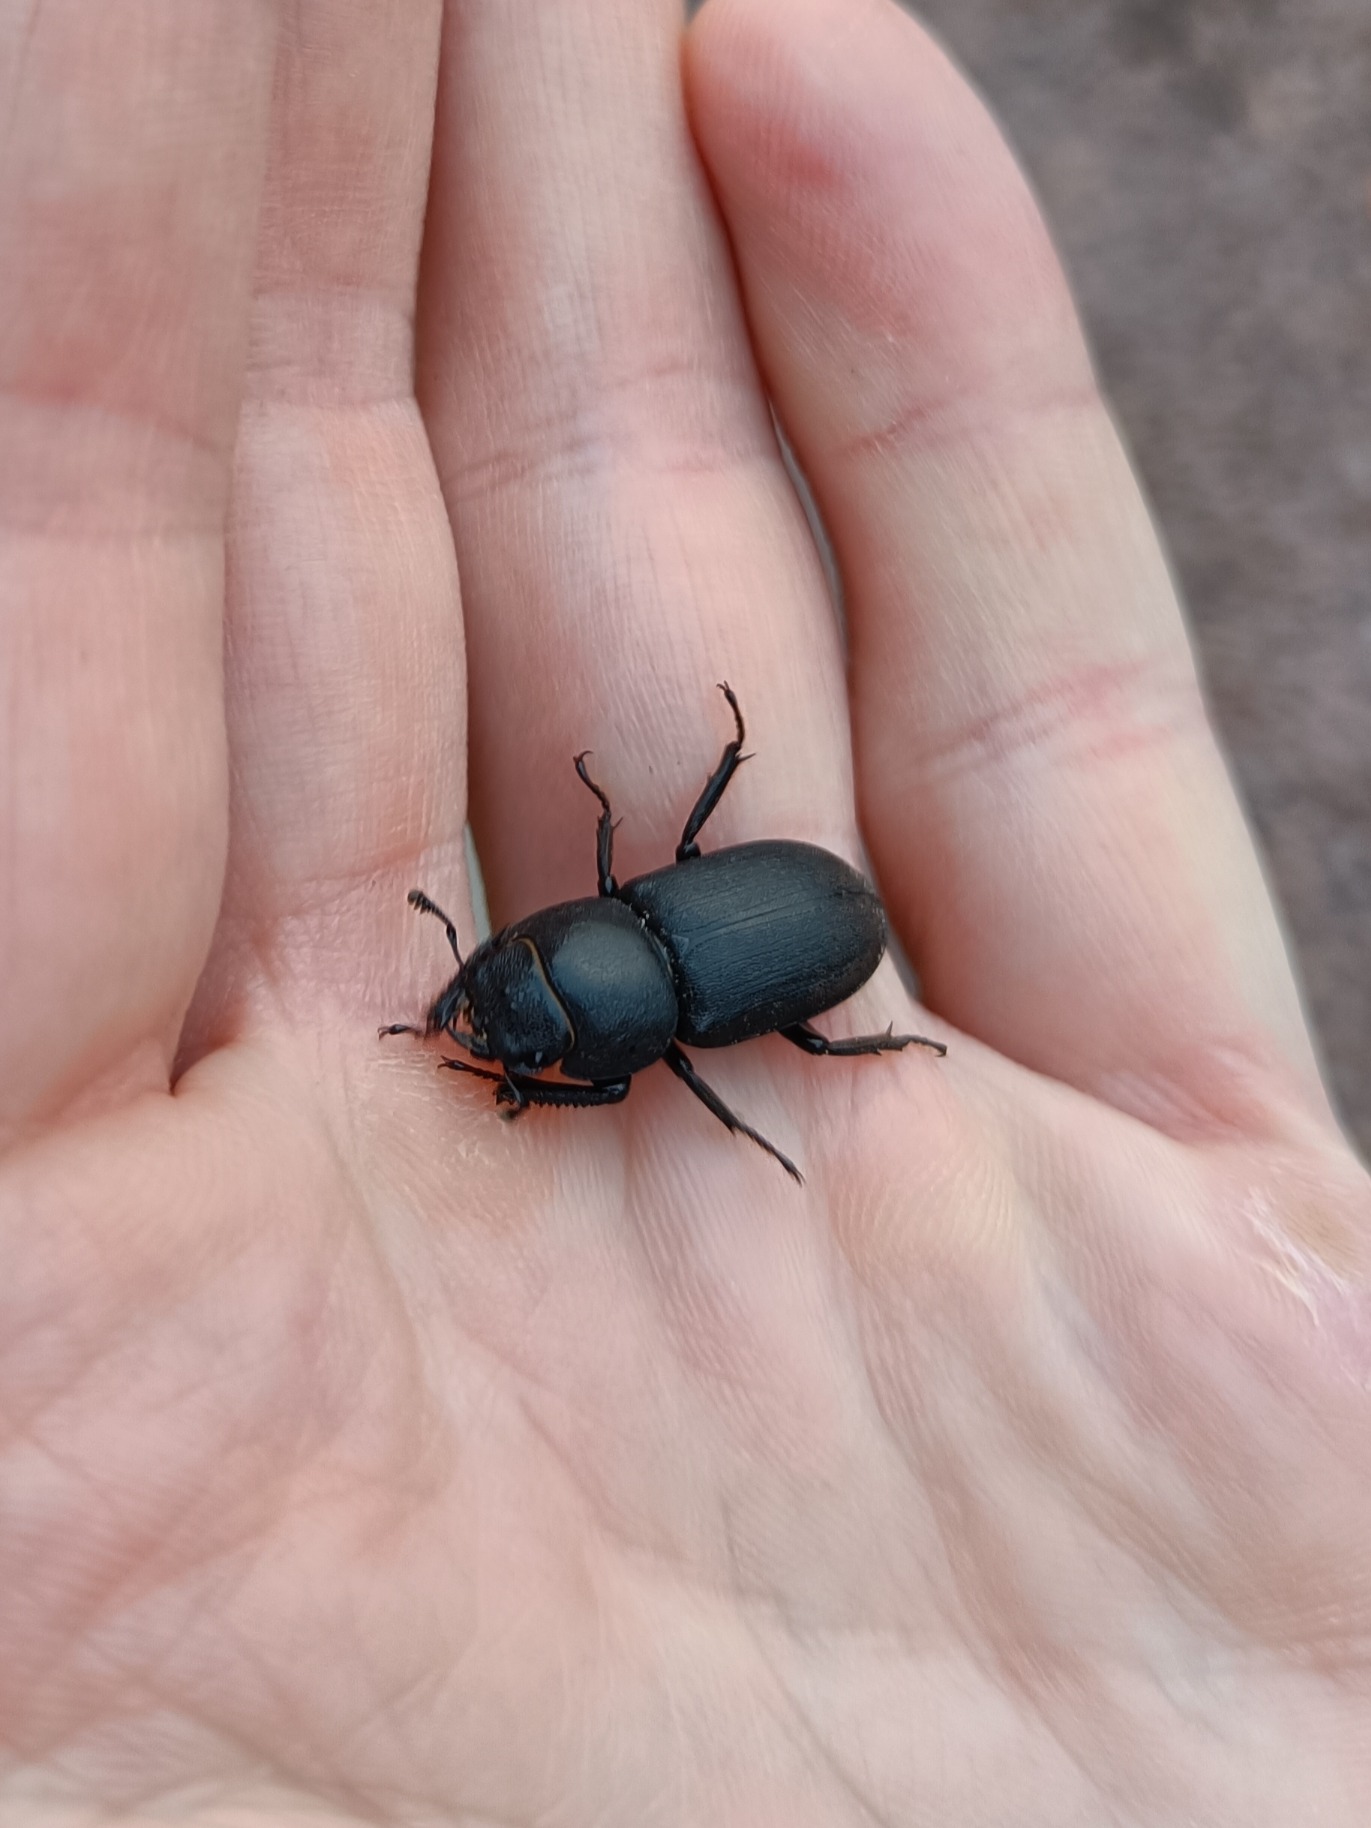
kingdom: Animalia
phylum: Arthropoda
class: Insecta
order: Coleoptera
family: Lucanidae
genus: Dorcus
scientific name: Dorcus parallelipipedus
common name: Bøghjort
